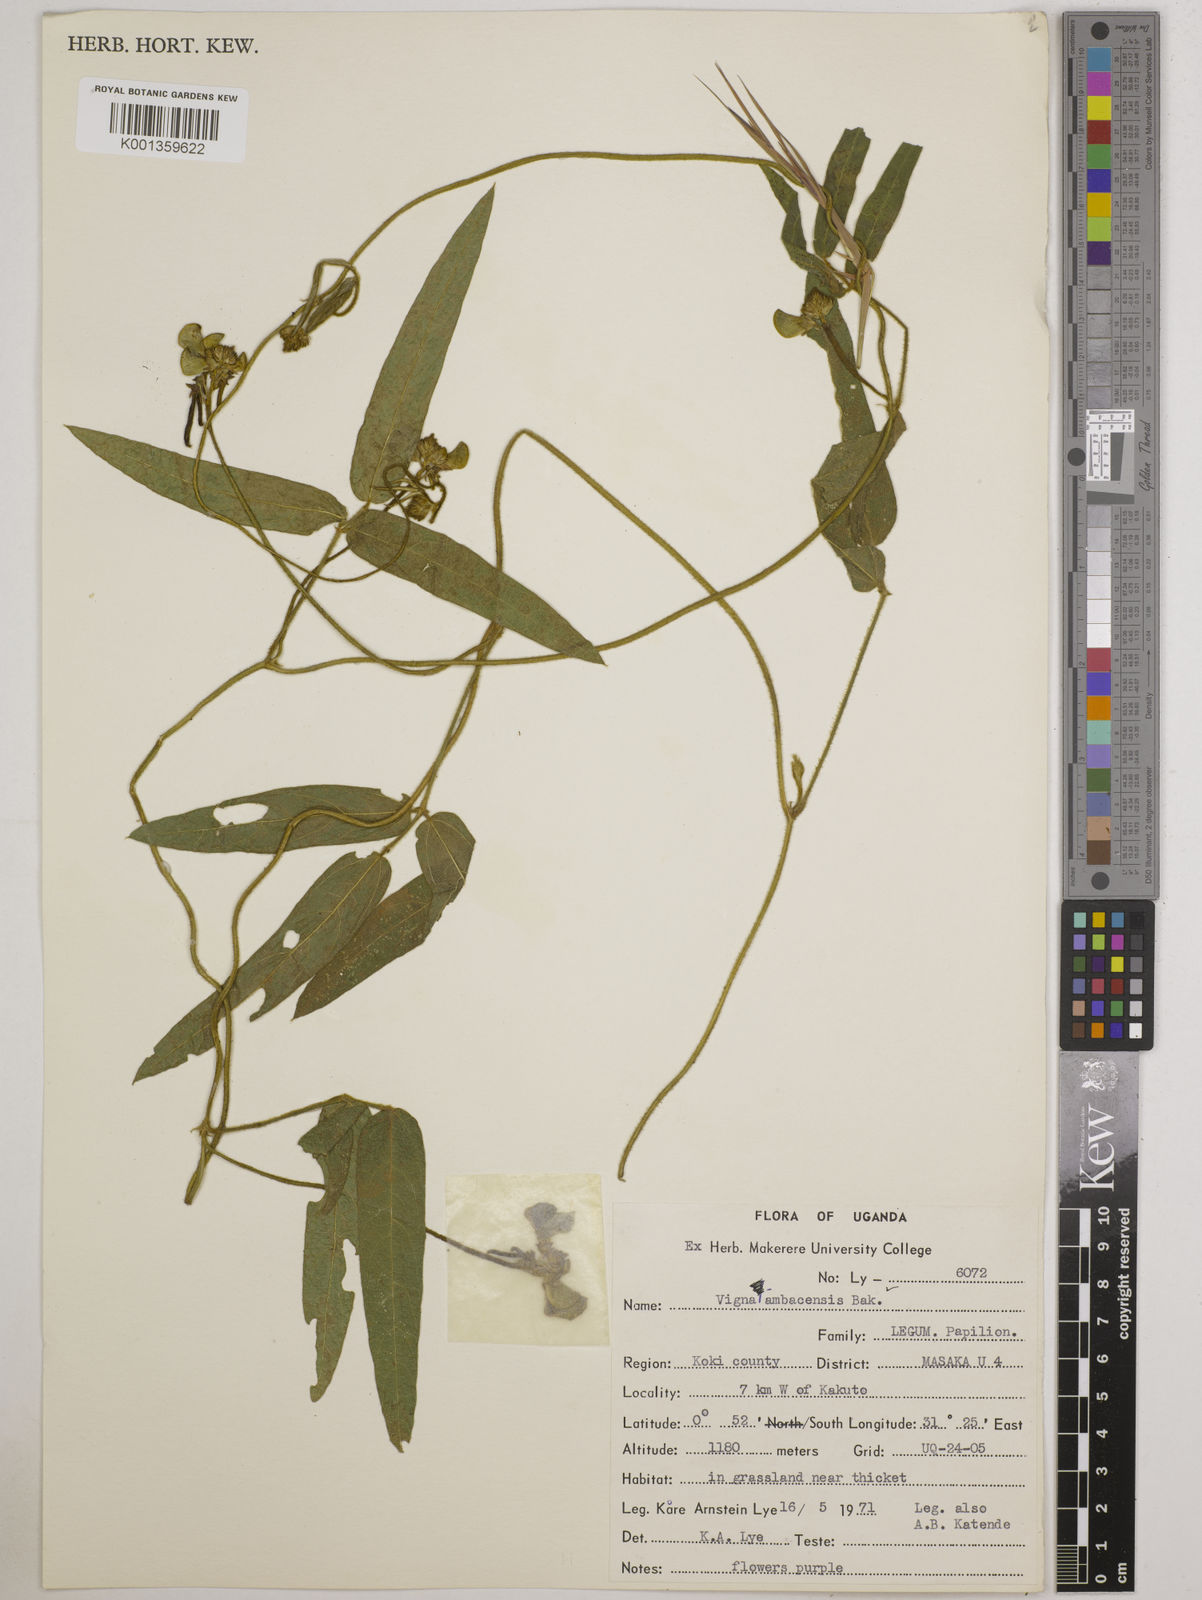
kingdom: Plantae
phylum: Tracheophyta
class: Magnoliopsida
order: Fabales
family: Fabaceae
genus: Vigna
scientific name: Vigna ambacensis
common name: Tsarkiyan zomo
